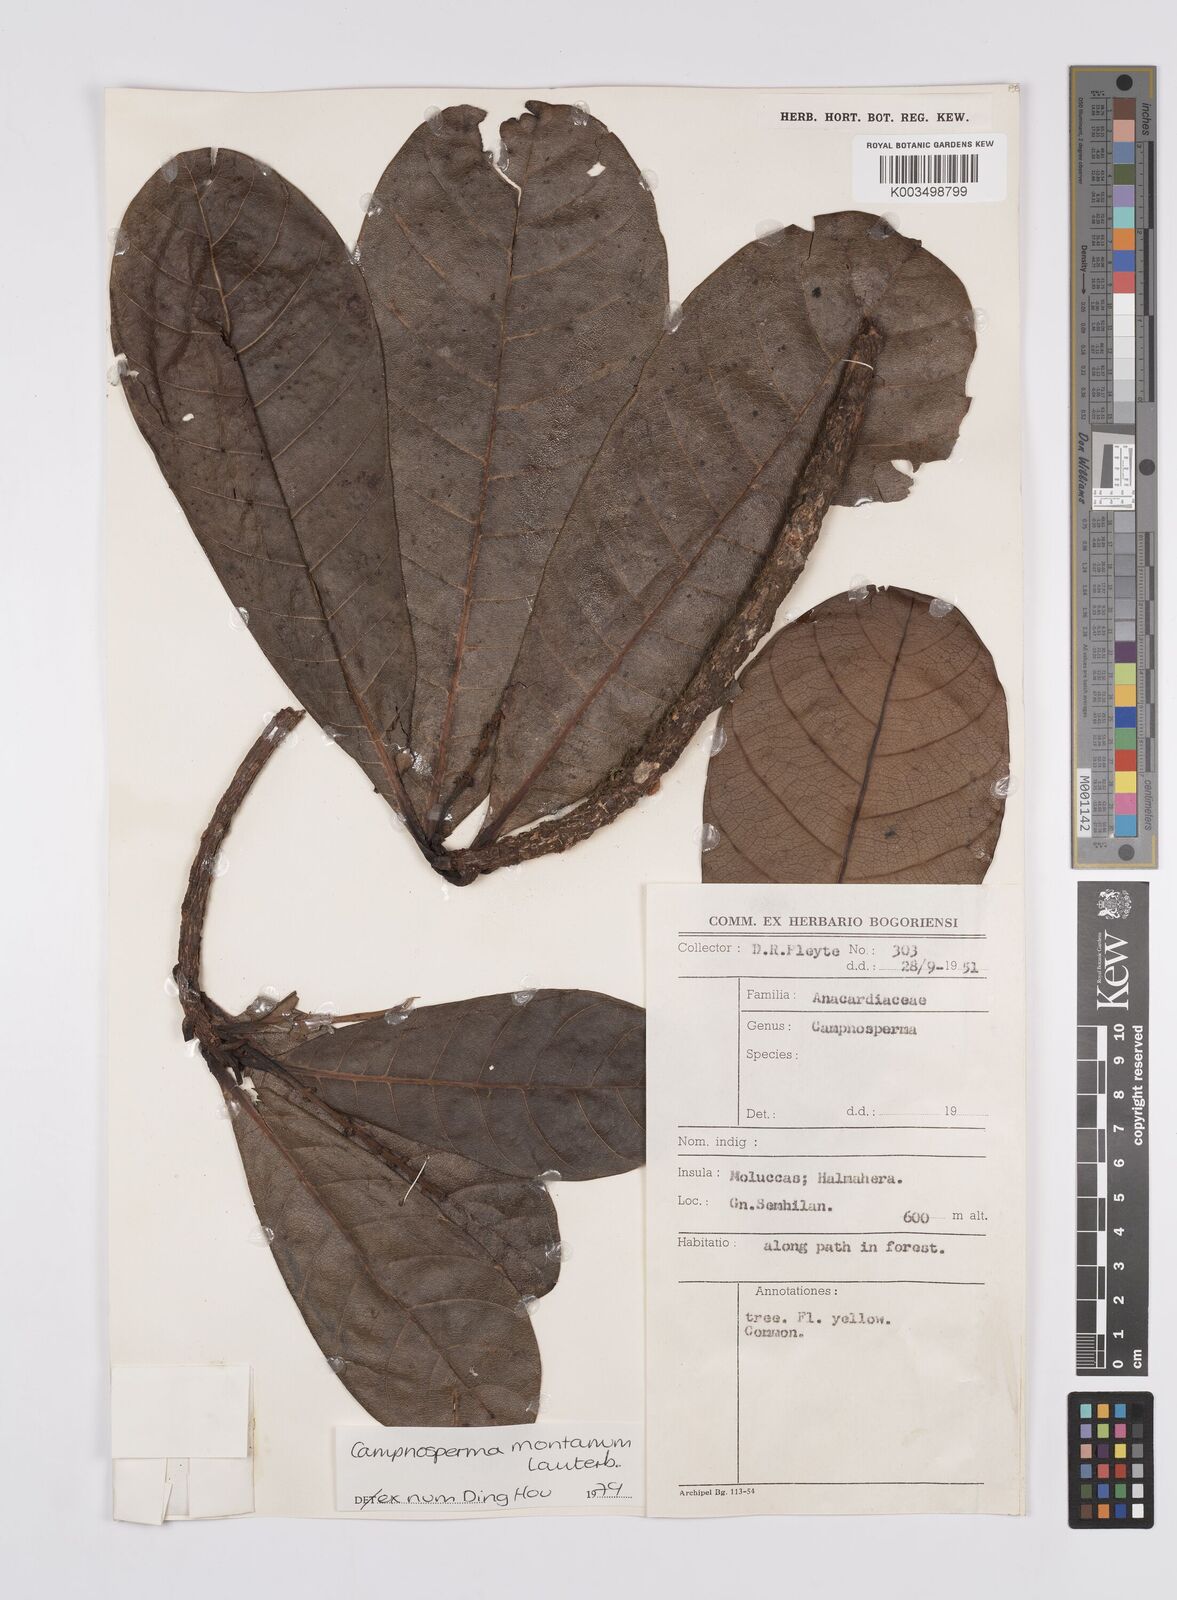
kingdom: Plantae
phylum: Tracheophyta
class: Magnoliopsida
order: Sapindales
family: Anacardiaceae
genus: Campnosperma
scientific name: Campnosperma montanum
